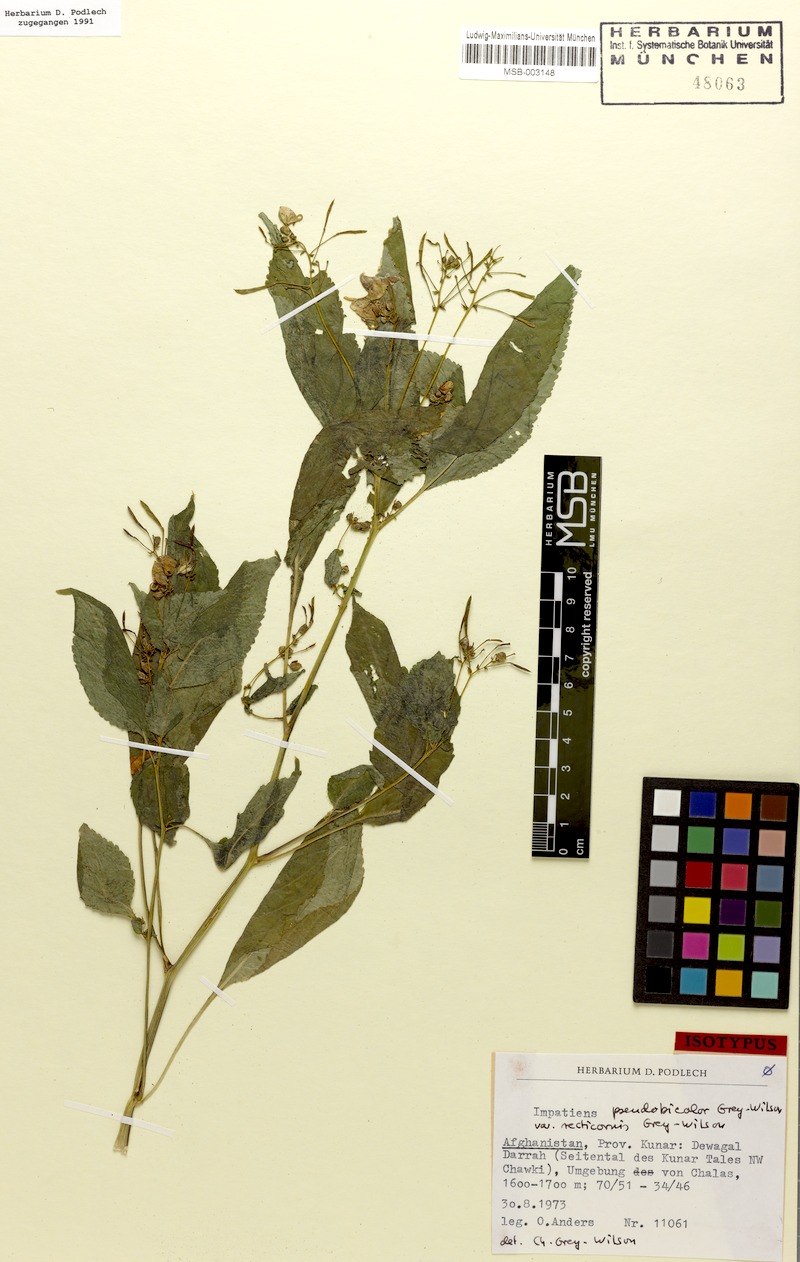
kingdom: Plantae
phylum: Tracheophyta
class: Magnoliopsida
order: Ericales
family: Balsaminaceae
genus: Impatiens
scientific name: Impatiens bicolor
